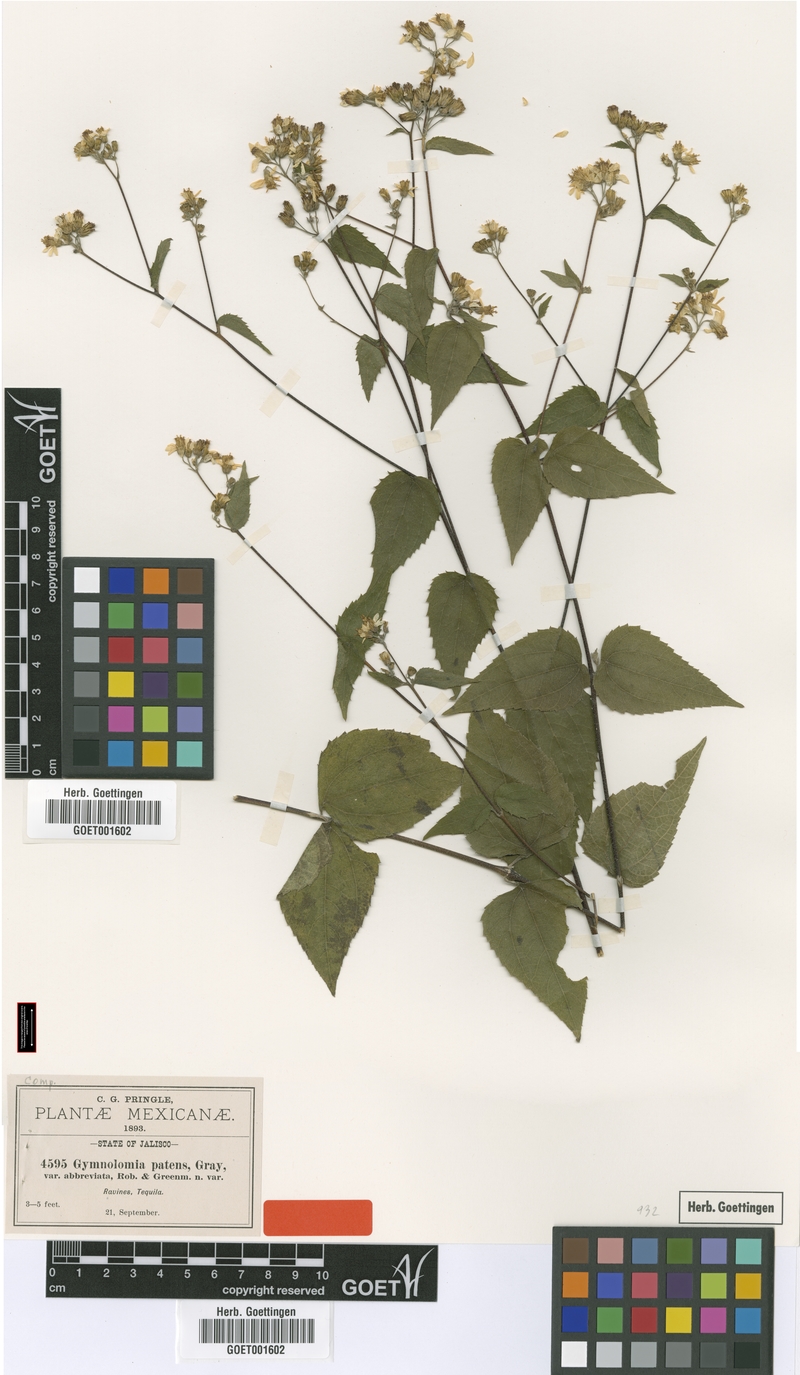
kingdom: Plantae
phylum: Tracheophyta
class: Magnoliopsida
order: Asterales
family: Asteraceae
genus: Hymenostephium
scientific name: Hymenostephium cordatum
